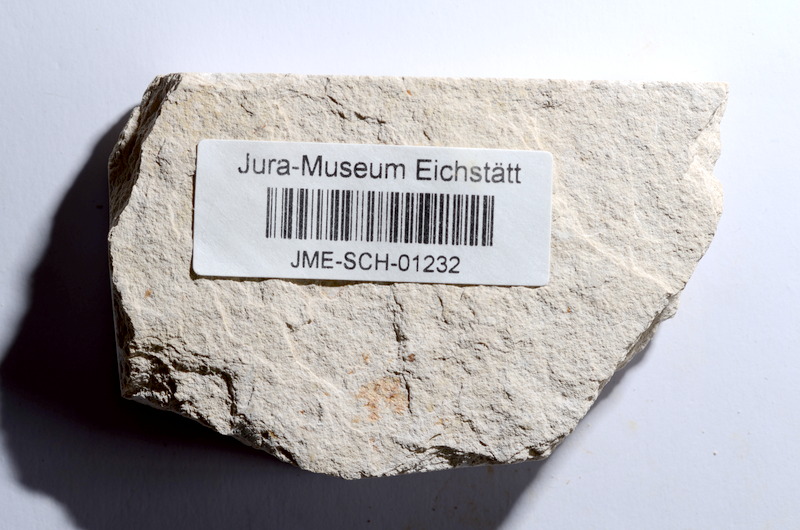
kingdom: Animalia
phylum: Chordata
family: Ascalaboidae
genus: Tharsis
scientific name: Tharsis dubius
